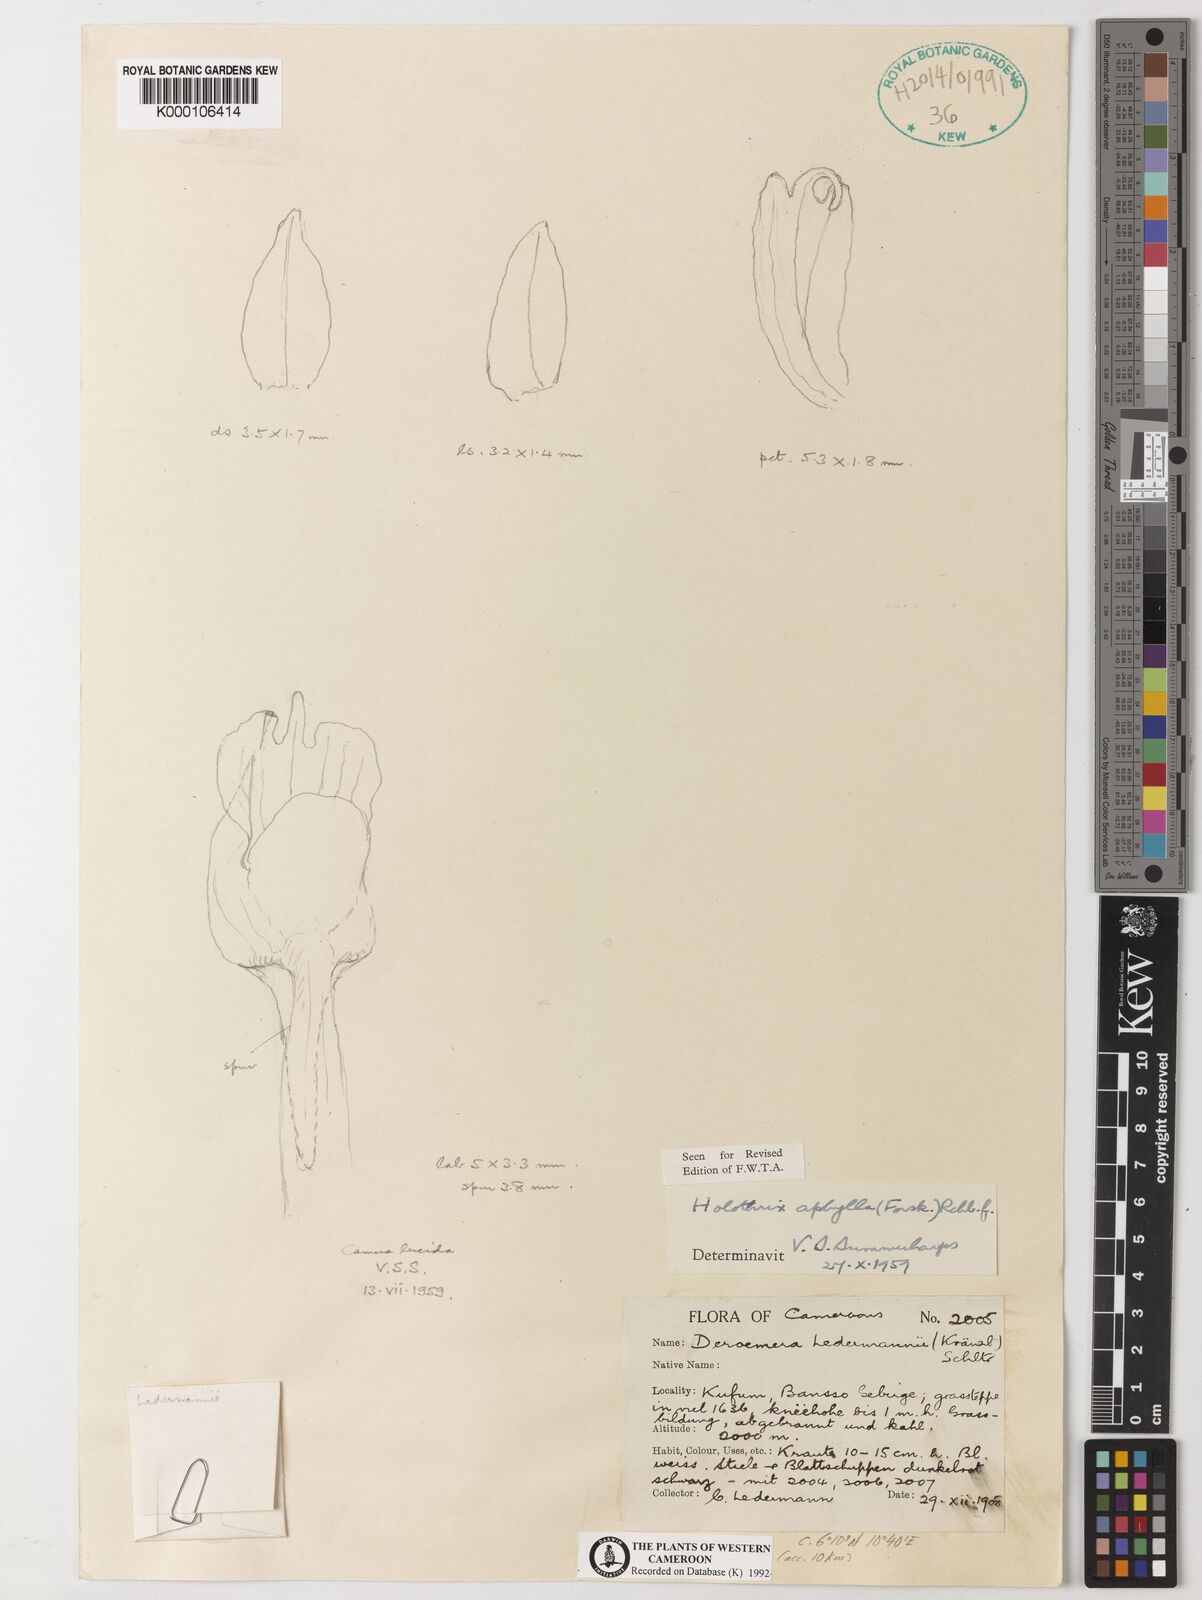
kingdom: Plantae
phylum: Tracheophyta
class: Liliopsida
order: Asparagales
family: Orchidaceae
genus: Holothrix
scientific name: Holothrix aphylla
